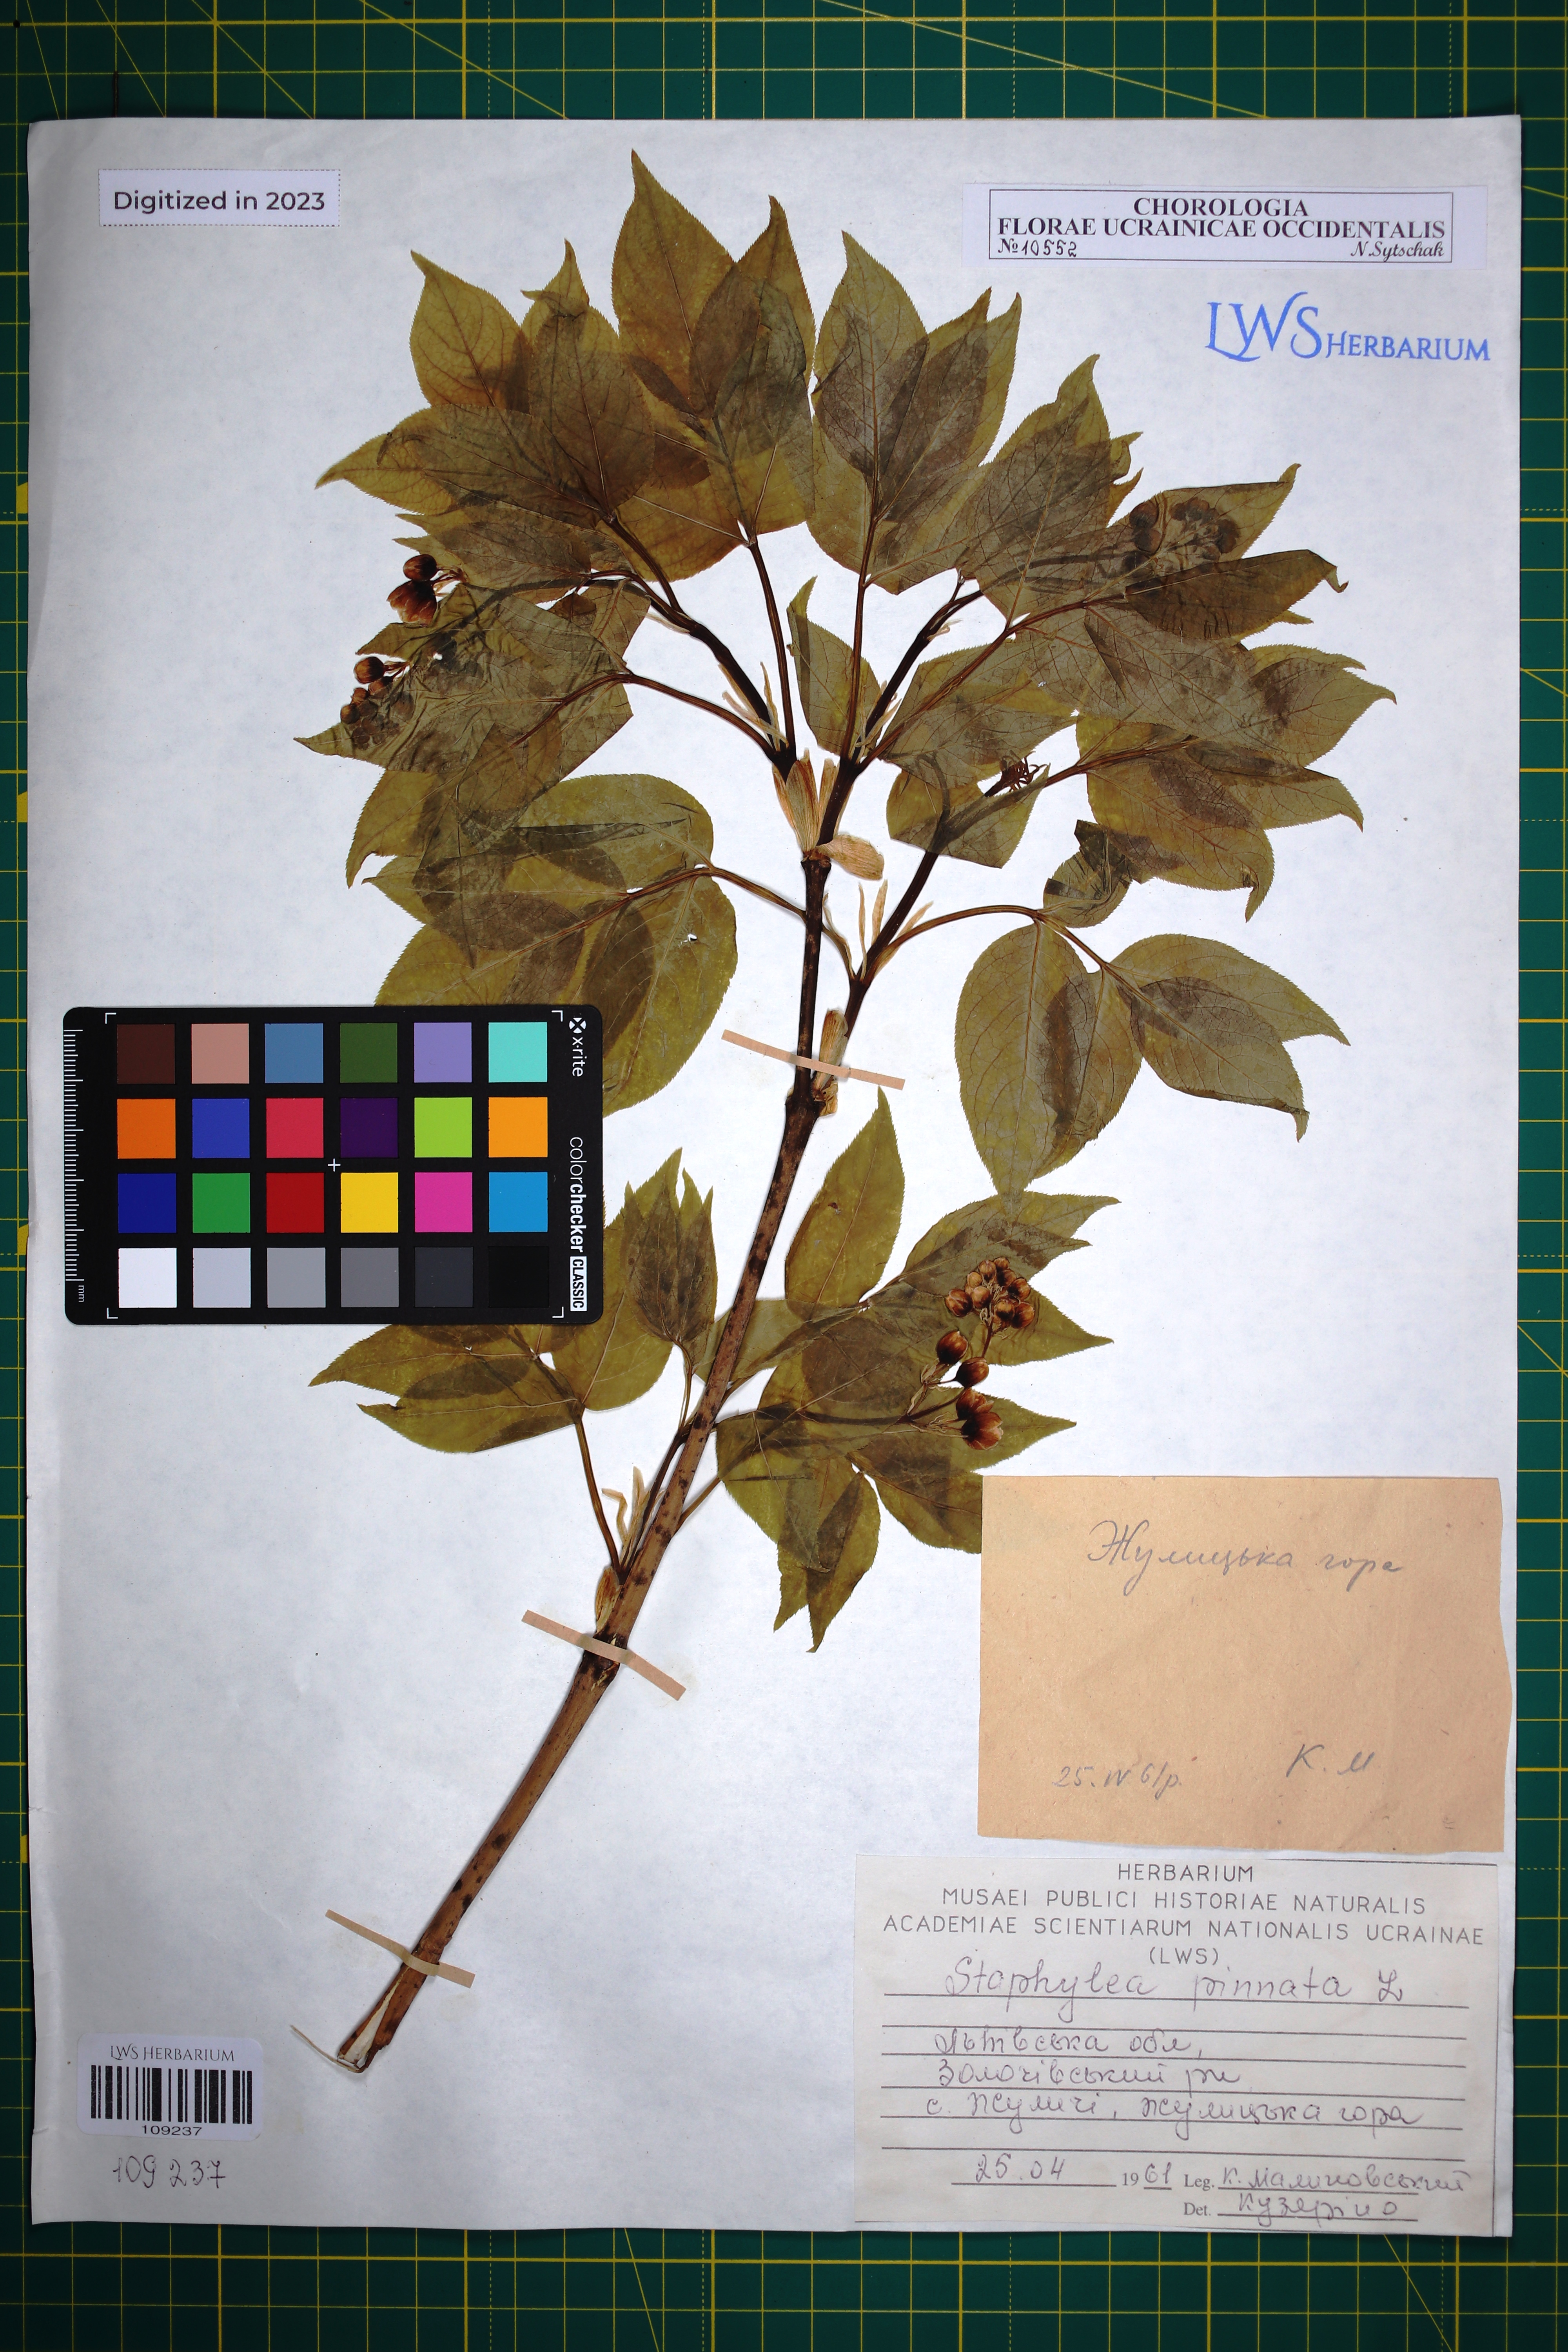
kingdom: Plantae
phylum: Tracheophyta
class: Magnoliopsida
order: Crossosomatales
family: Staphyleaceae
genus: Staphylea
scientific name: Staphylea pinnata
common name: Bladdernut
